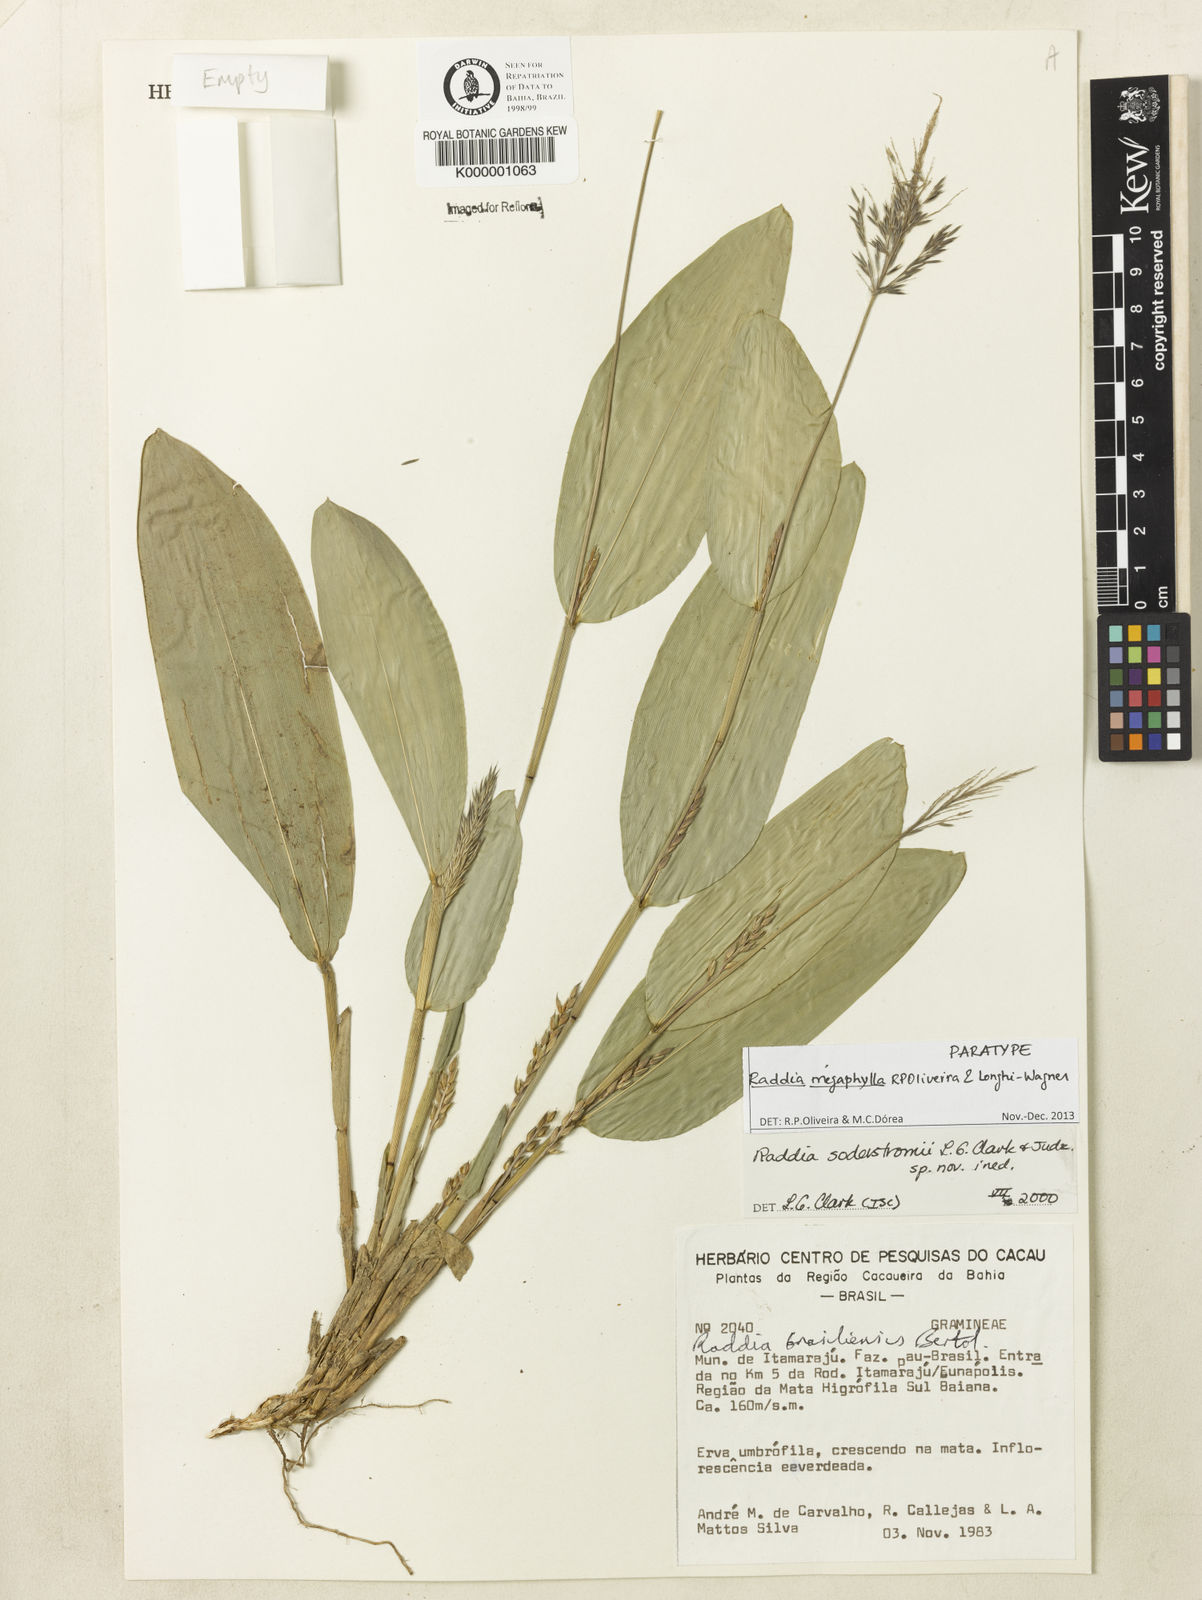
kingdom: Plantae
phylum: Tracheophyta
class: Liliopsida
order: Poales
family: Poaceae
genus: Raddia
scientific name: Raddia
